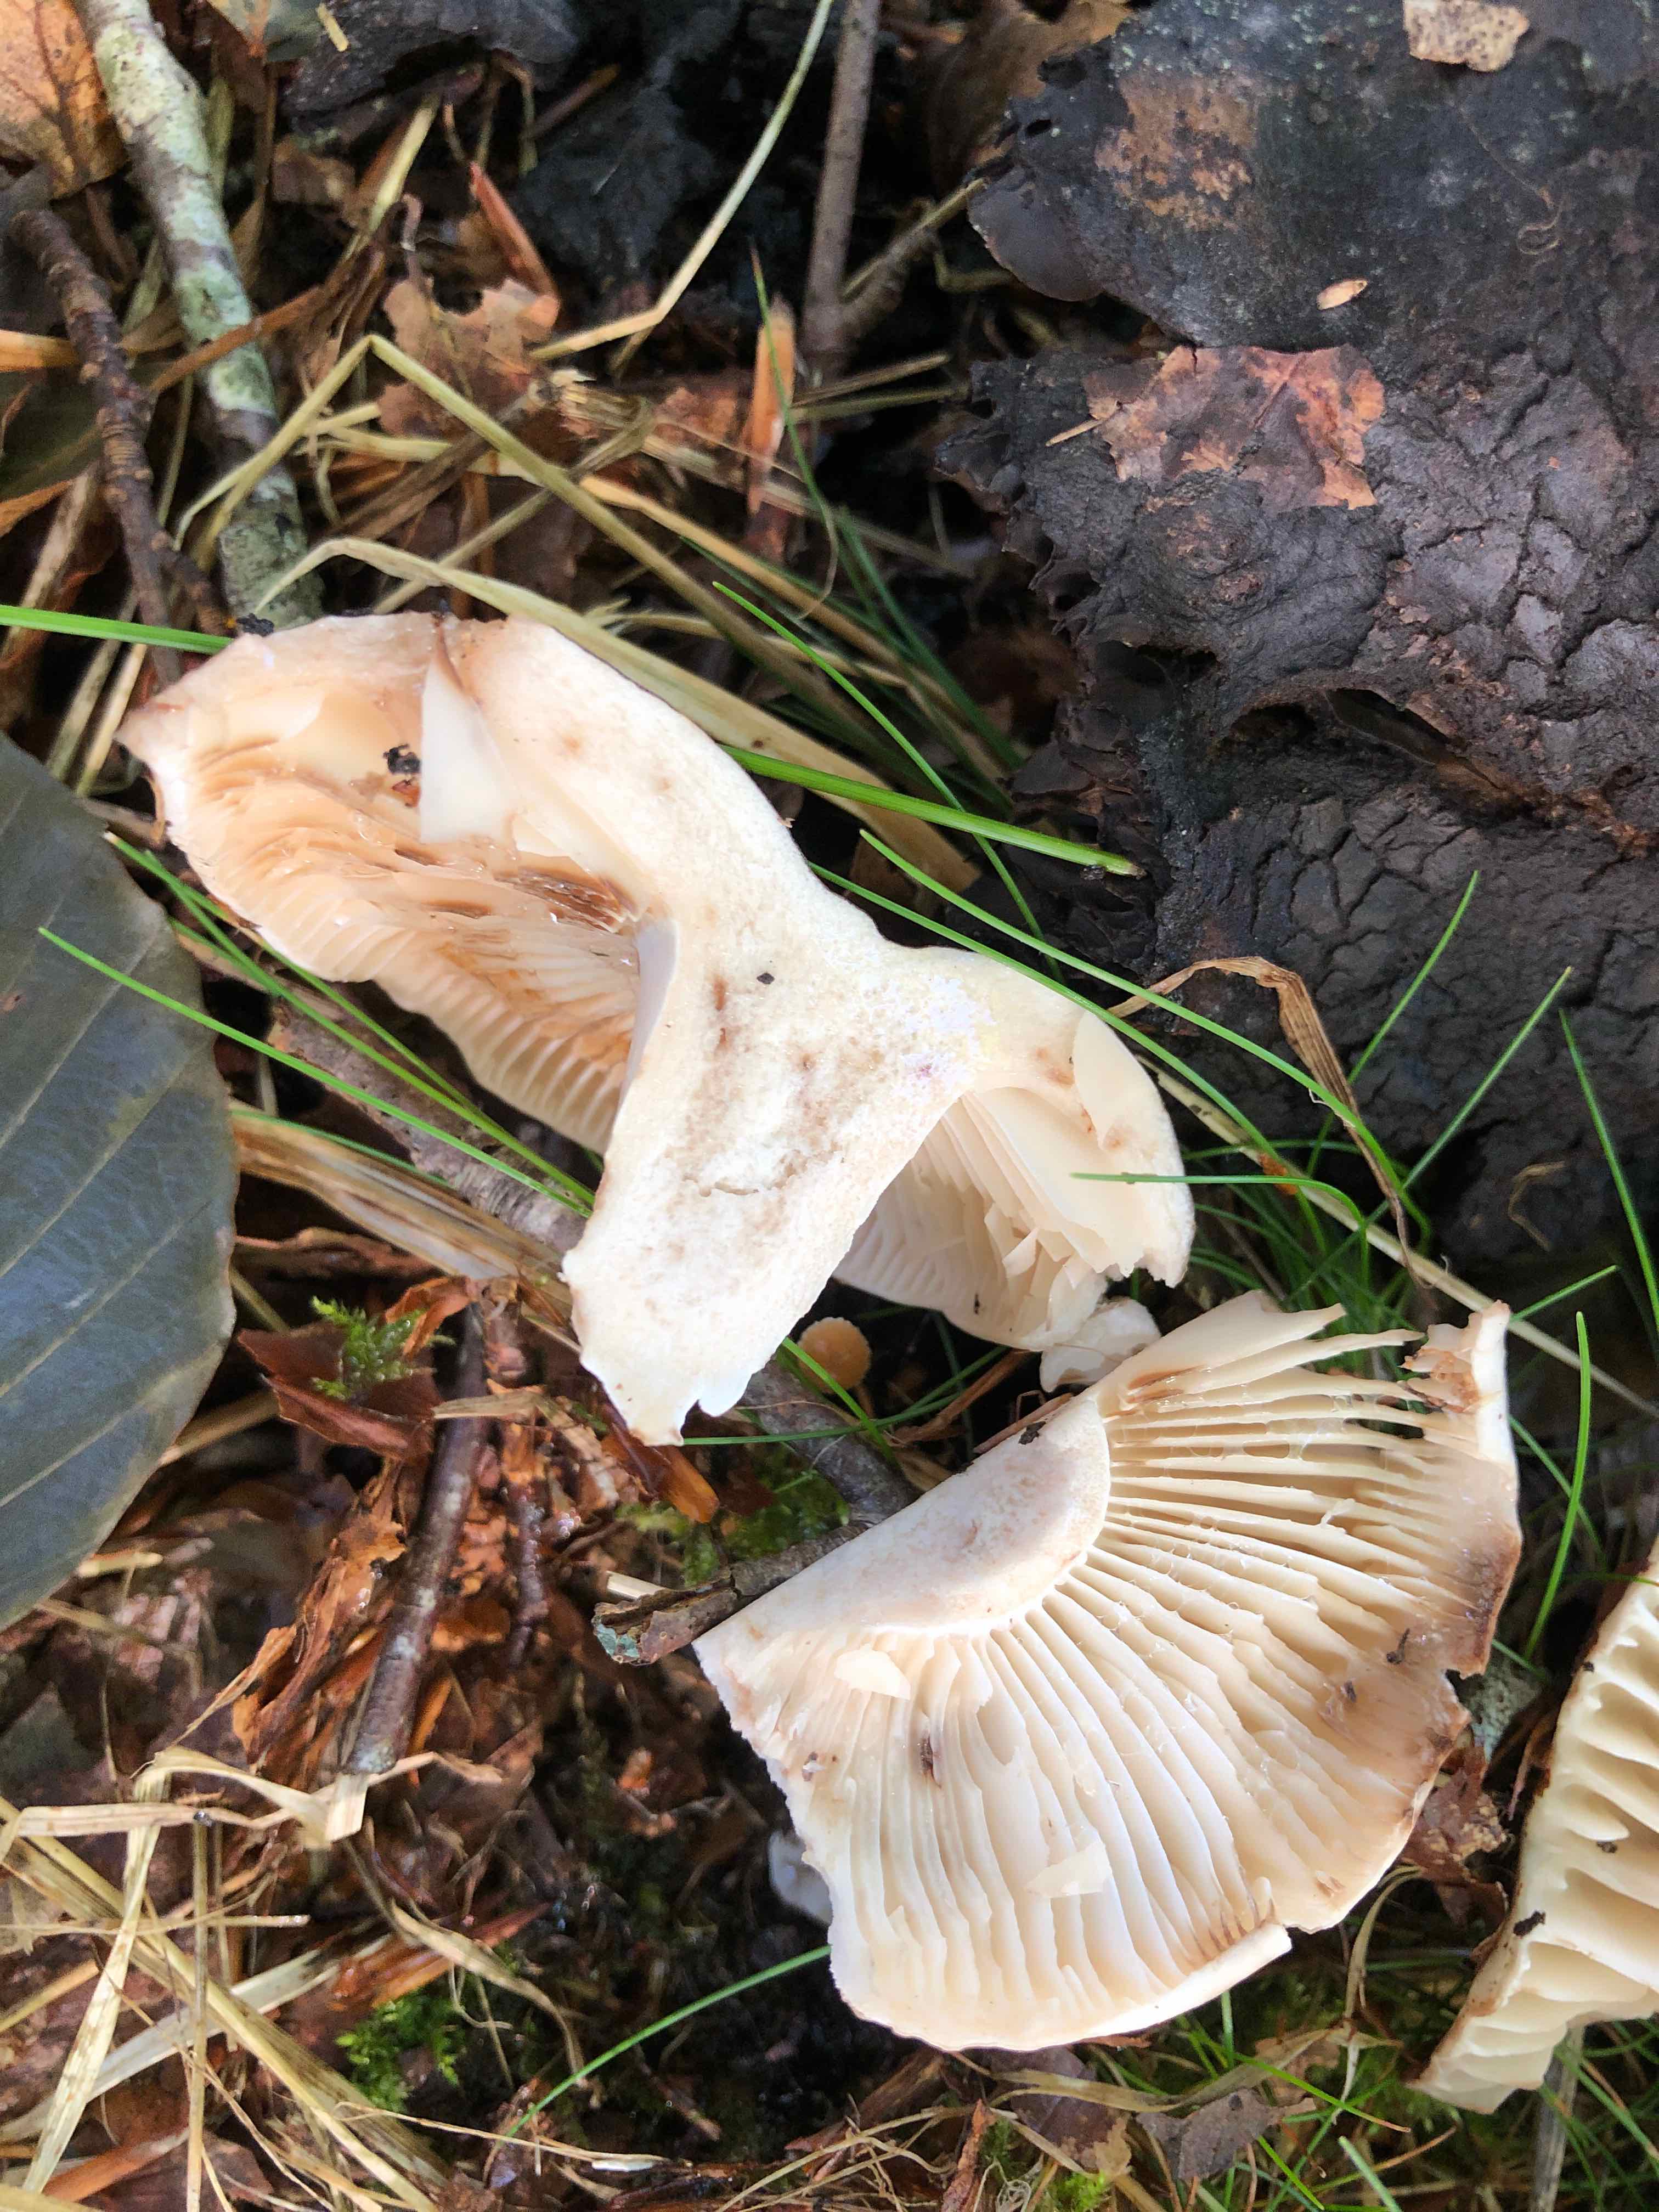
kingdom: Fungi
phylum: Basidiomycota
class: Agaricomycetes
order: Russulales
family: Russulaceae
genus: Russula
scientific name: Russula adusta
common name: sværtende skørhat
